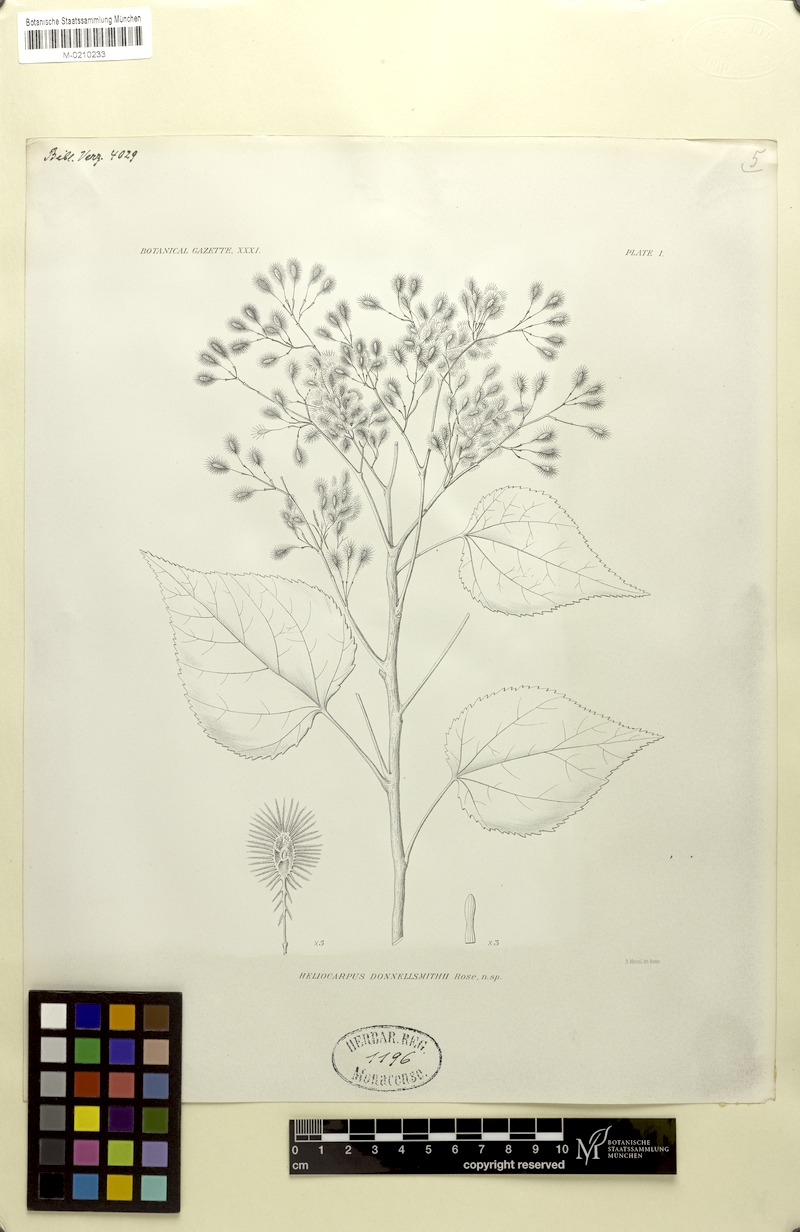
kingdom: Plantae
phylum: Tracheophyta
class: Magnoliopsida
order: Malvales
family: Malvaceae
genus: Heliocarpus
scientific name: Heliocarpus donnellsmithii
